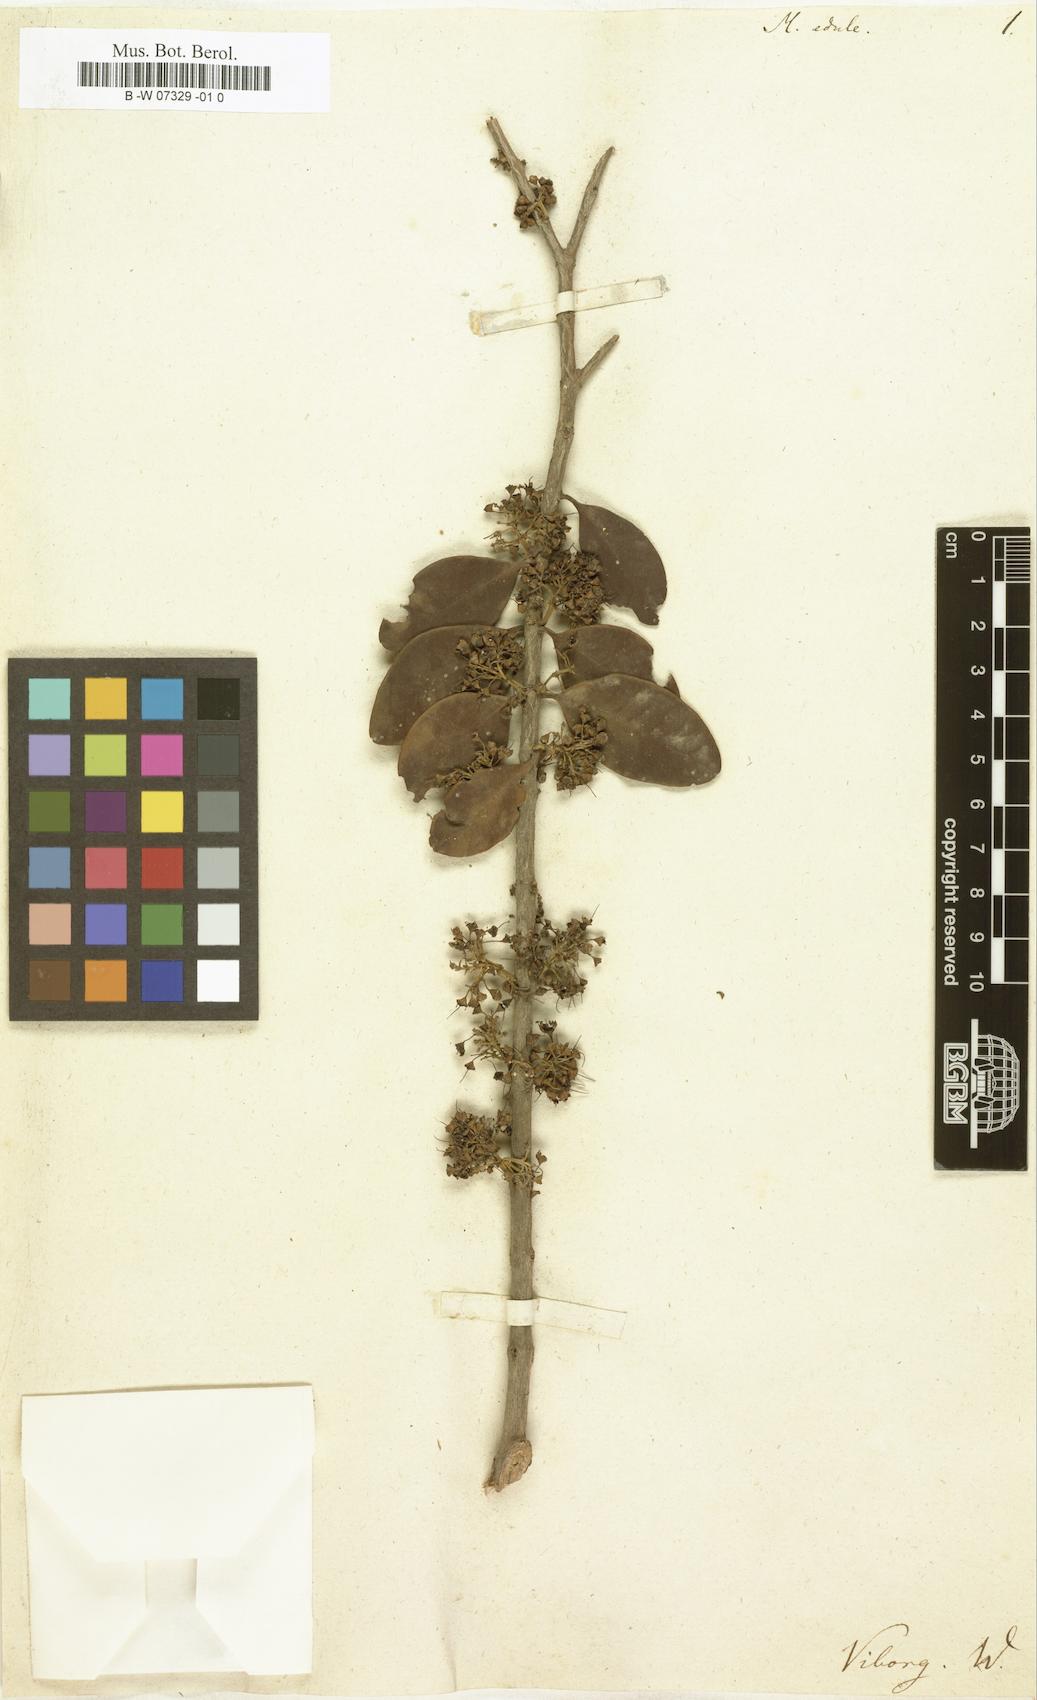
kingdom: Plantae
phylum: Tracheophyta
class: Magnoliopsida
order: Myrtales
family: Melastomataceae
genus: Memecylon
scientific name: Memecylon edule
